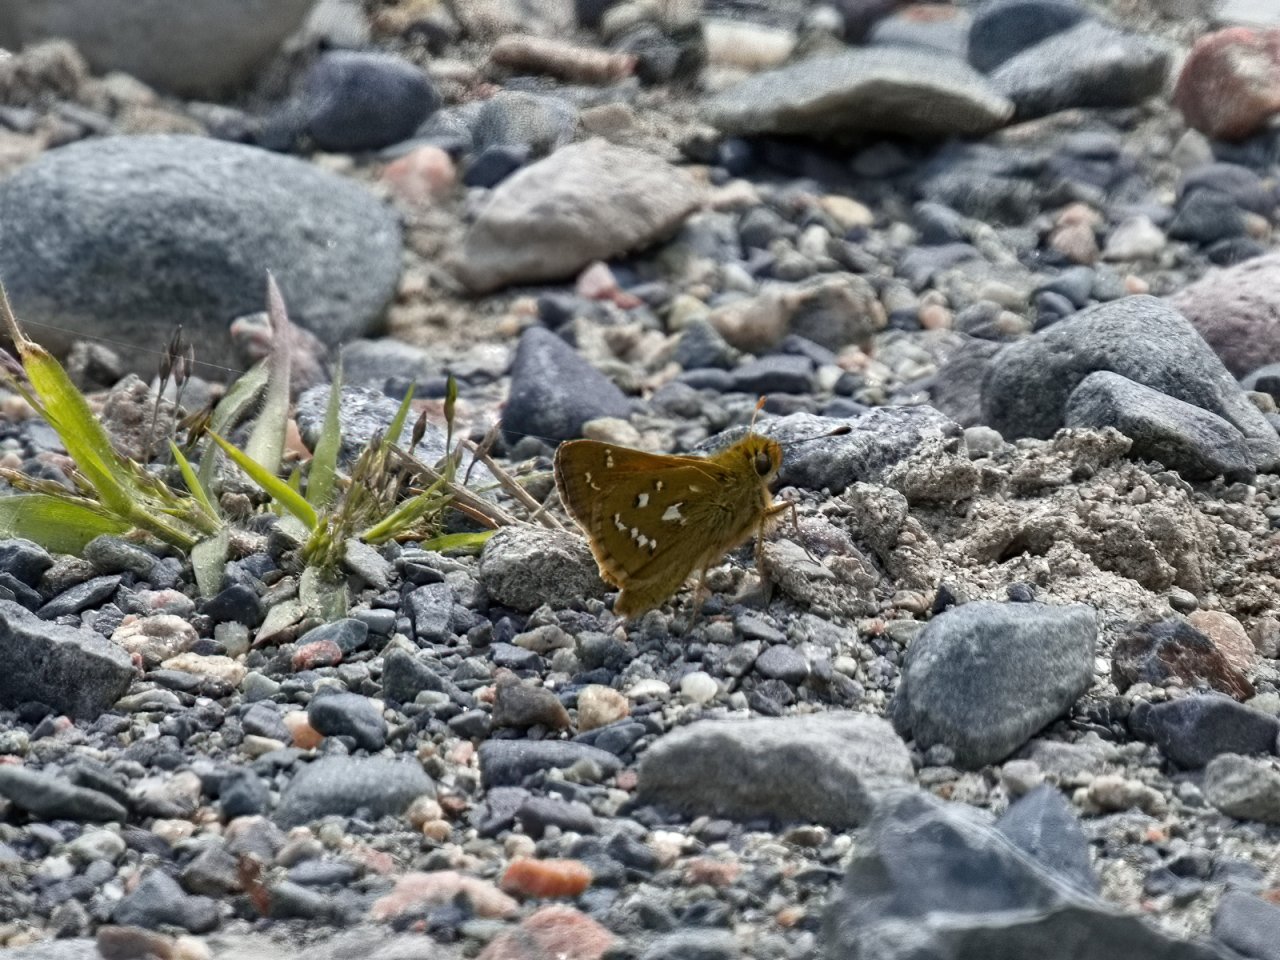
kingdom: Animalia
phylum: Arthropoda
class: Insecta
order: Lepidoptera
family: Hesperiidae
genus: Hesperia
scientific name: Hesperia comma
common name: Common Branded Skipper
